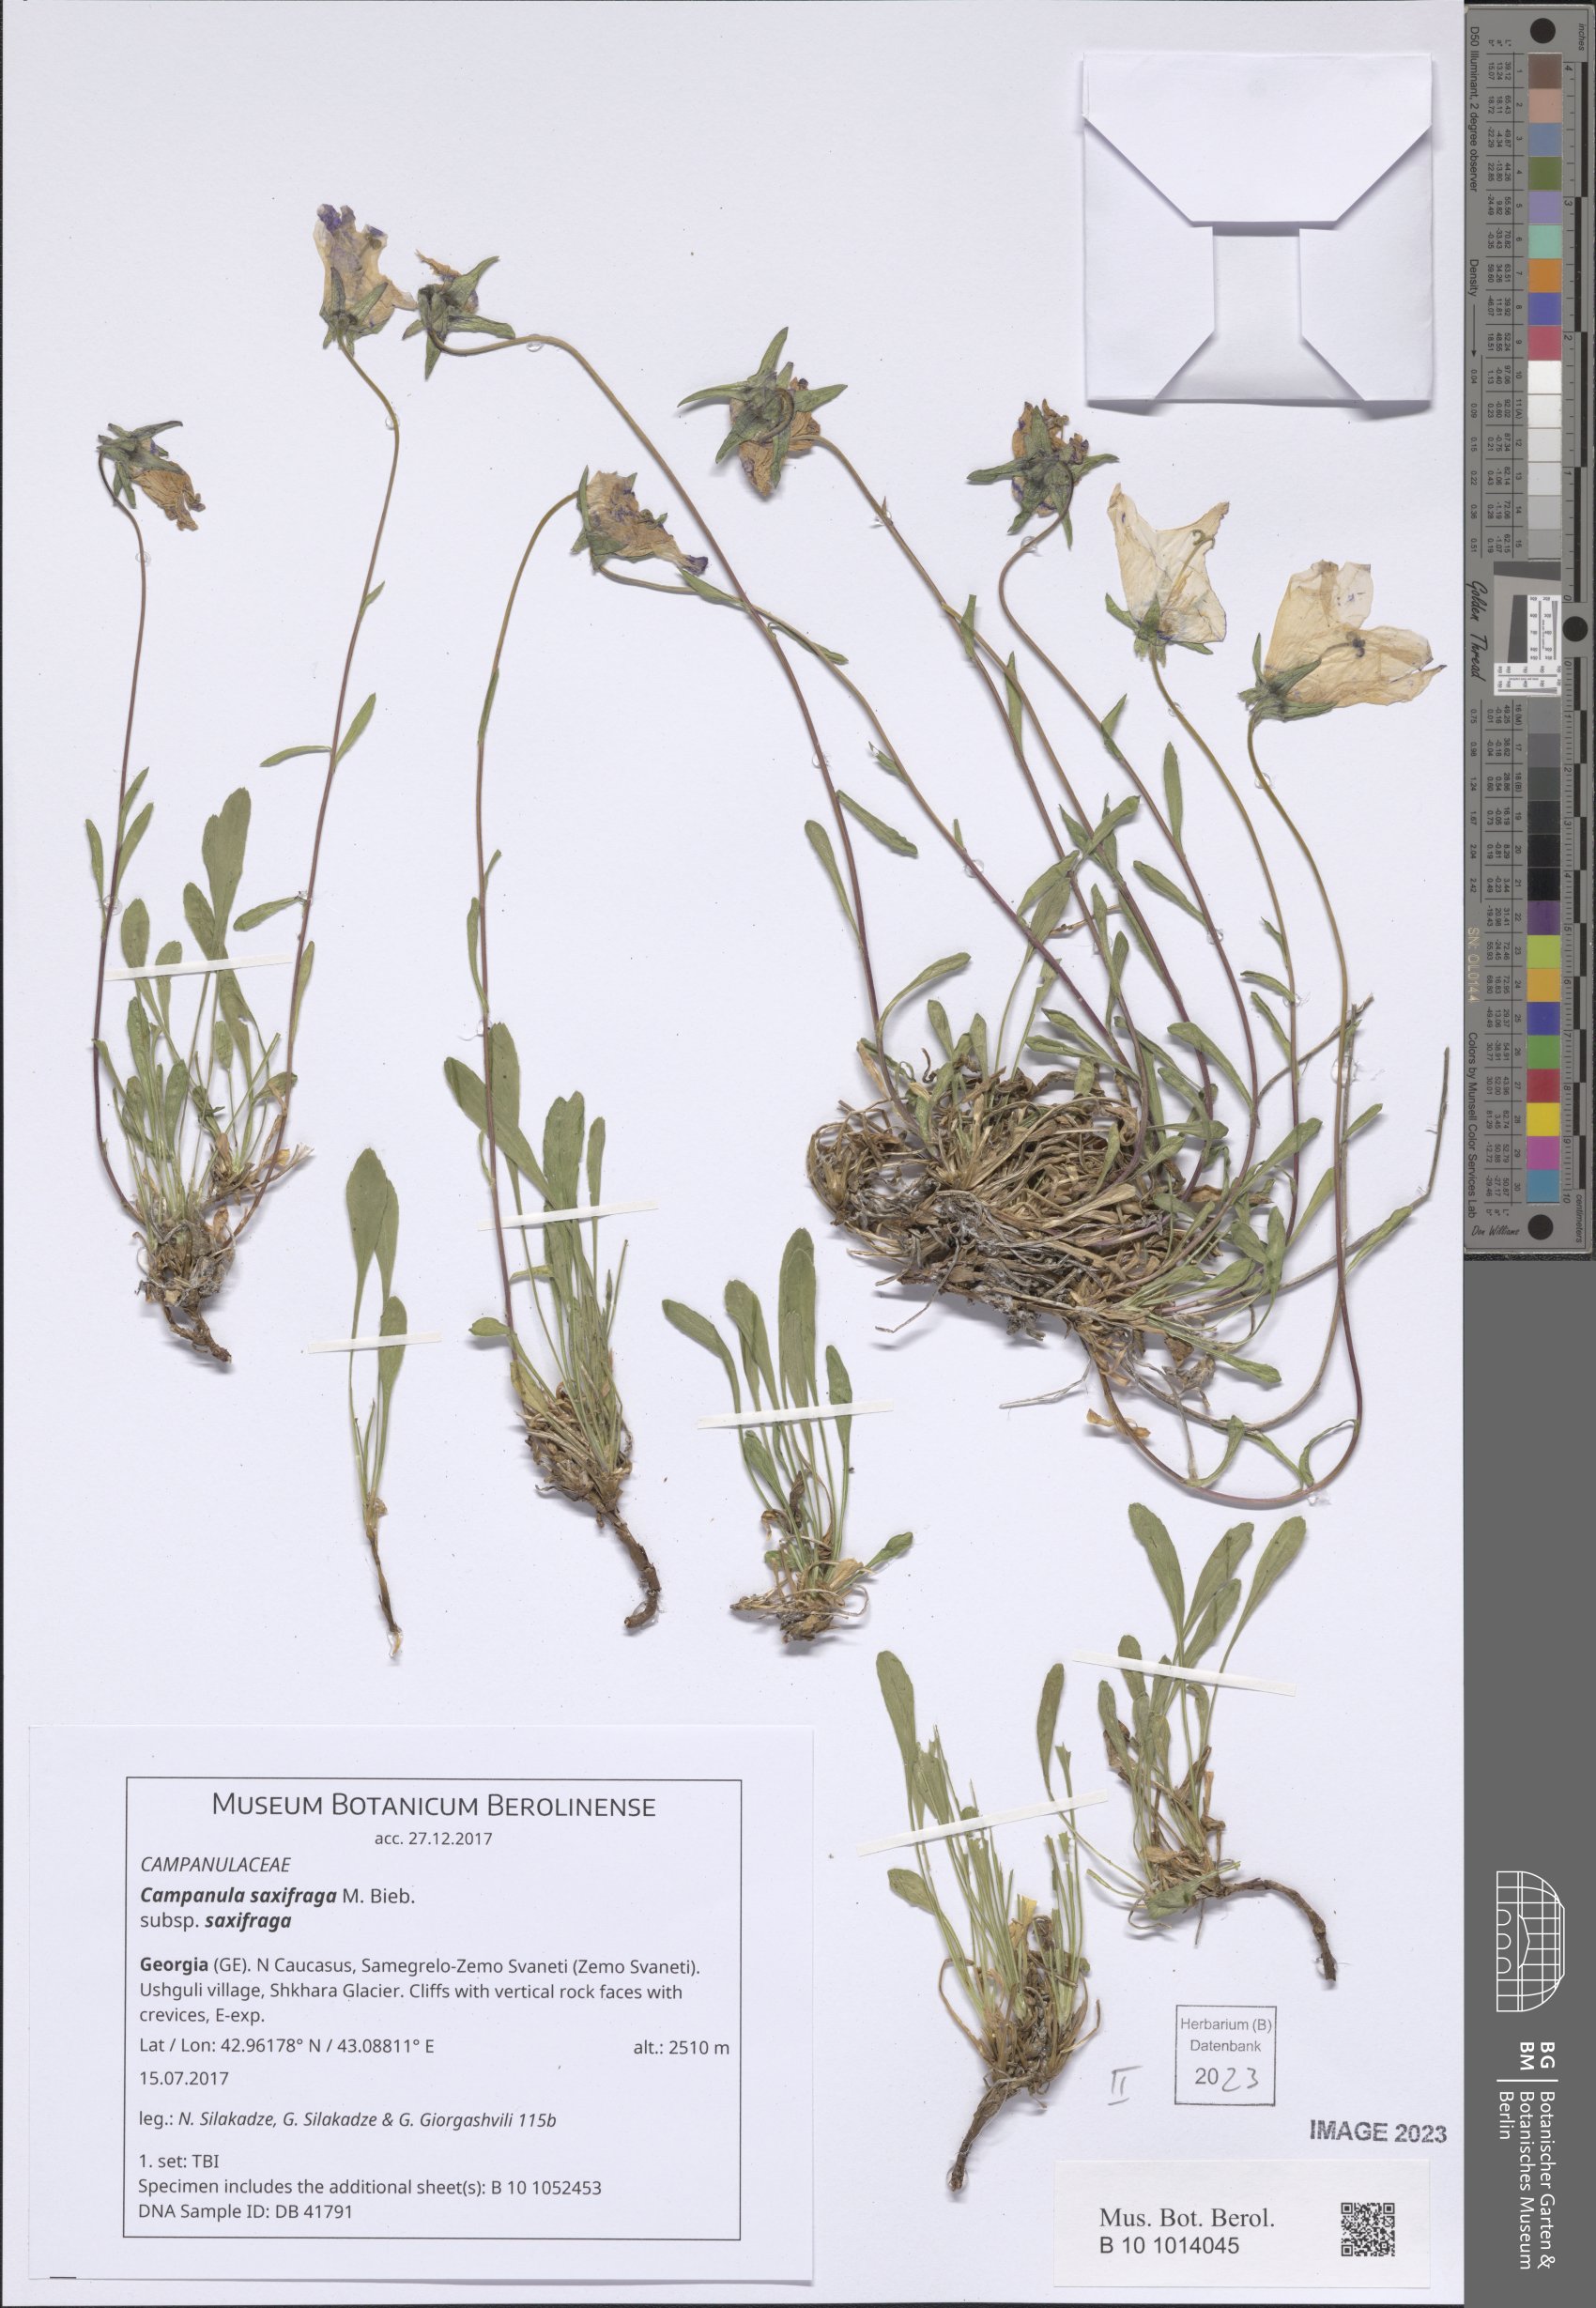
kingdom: Plantae
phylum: Tracheophyta
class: Magnoliopsida
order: Asterales
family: Campanulaceae
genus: Campanula
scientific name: Campanula saxifraga
